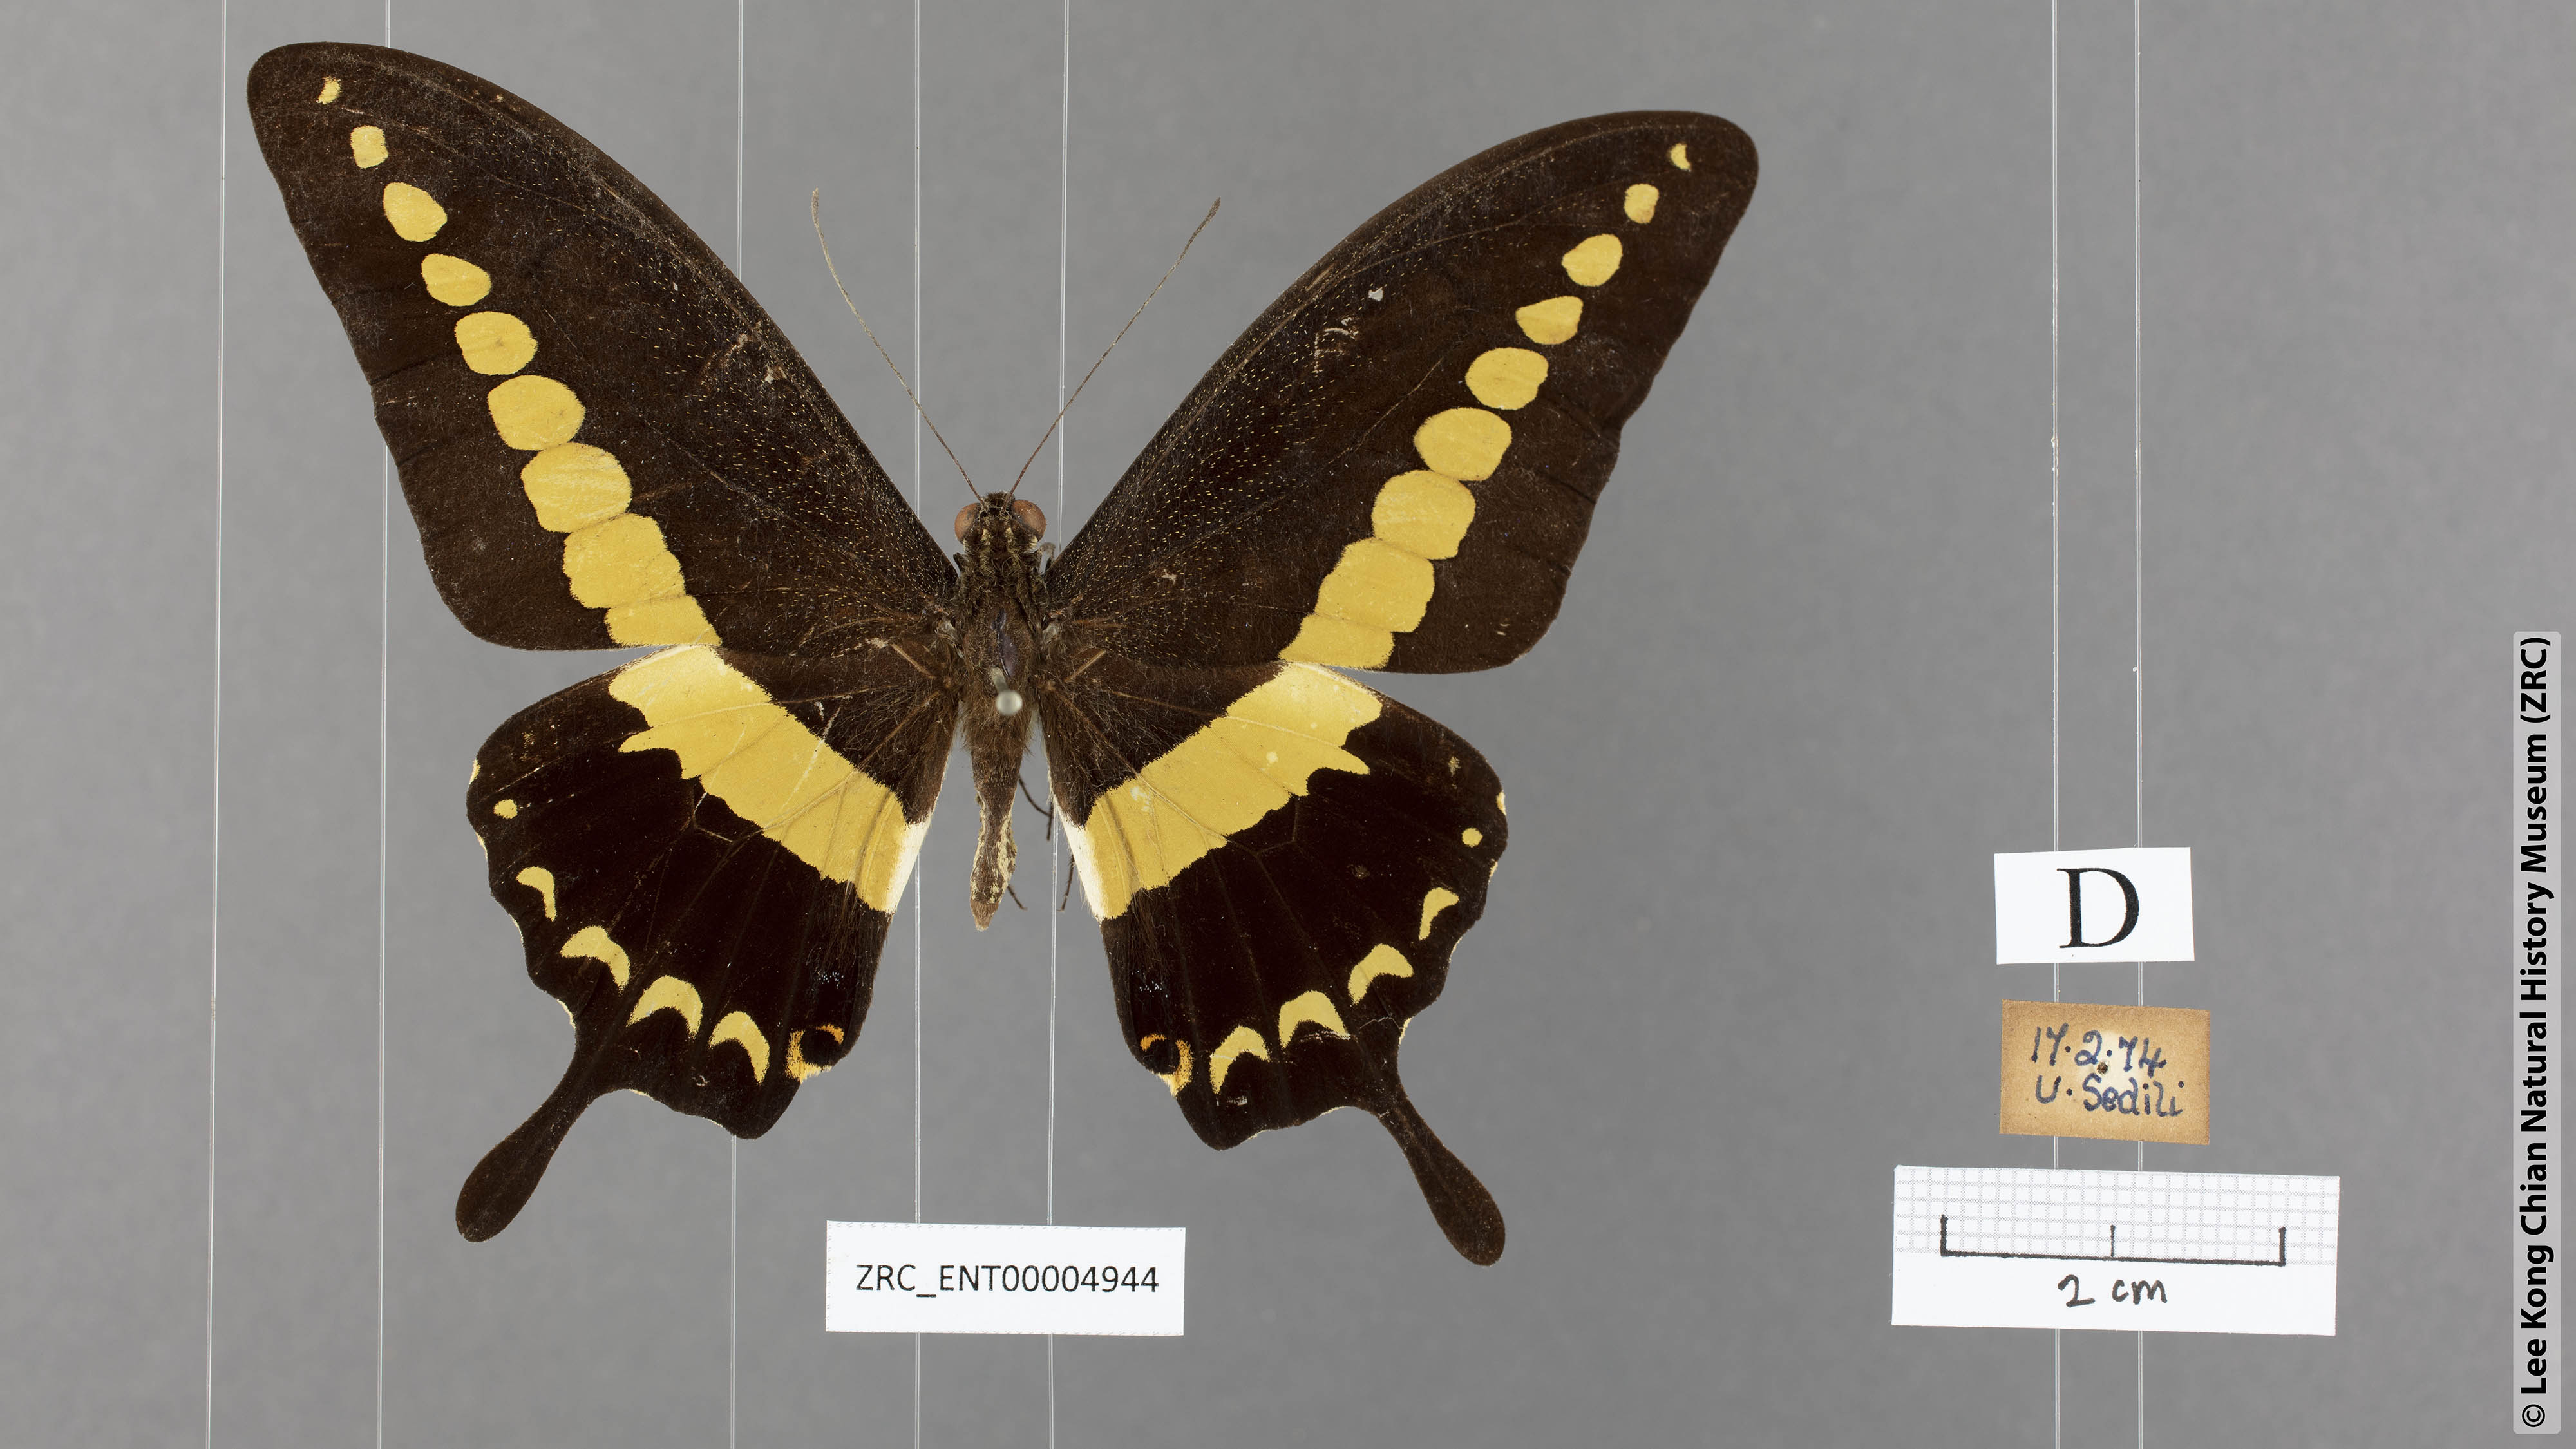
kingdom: Animalia
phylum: Arthropoda
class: Insecta
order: Lepidoptera
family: Papilionidae
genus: Papilio
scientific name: Papilio demolion
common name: Banded swallowtail
